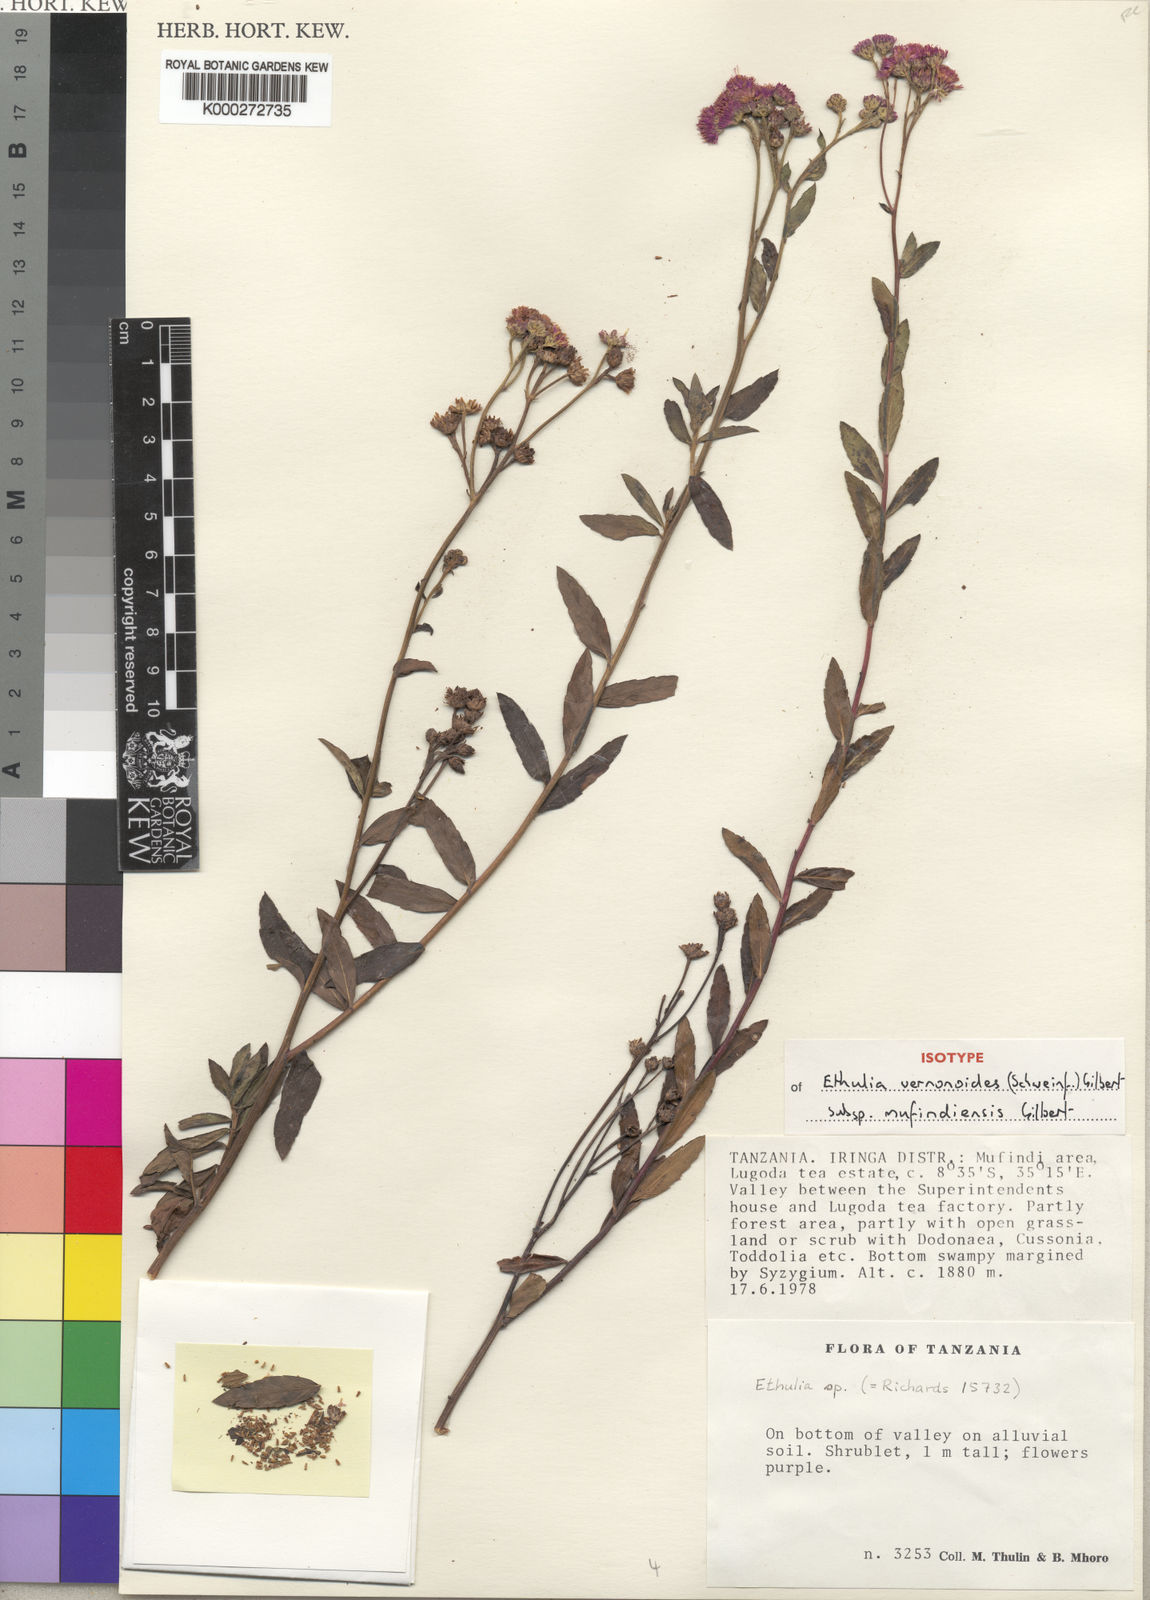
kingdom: Plantae
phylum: Tracheophyta
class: Magnoliopsida
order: Asterales
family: Asteraceae
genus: Ethulia
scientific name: Ethulia vernonioides
